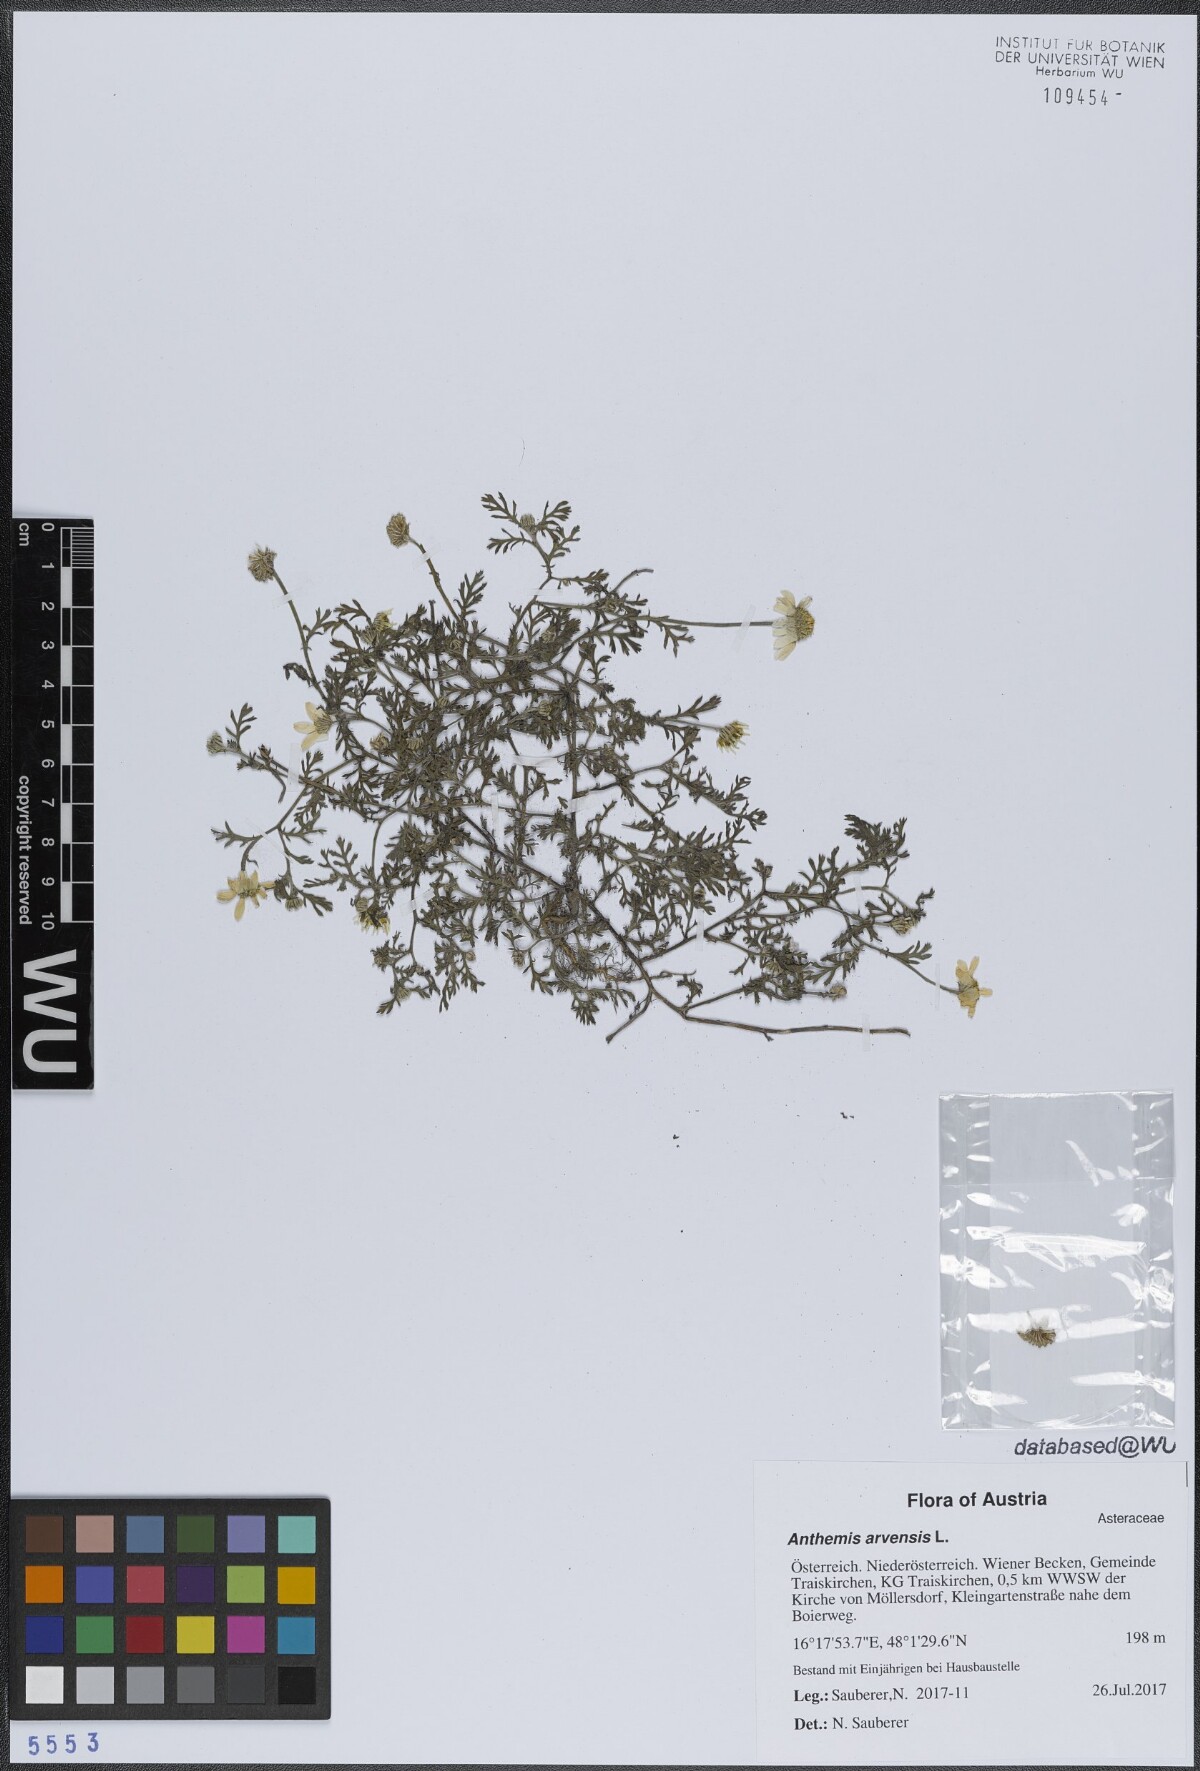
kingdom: Plantae
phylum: Tracheophyta
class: Magnoliopsida
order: Asterales
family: Asteraceae
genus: Anthemis
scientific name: Anthemis arvensis
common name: Corn chamomile
